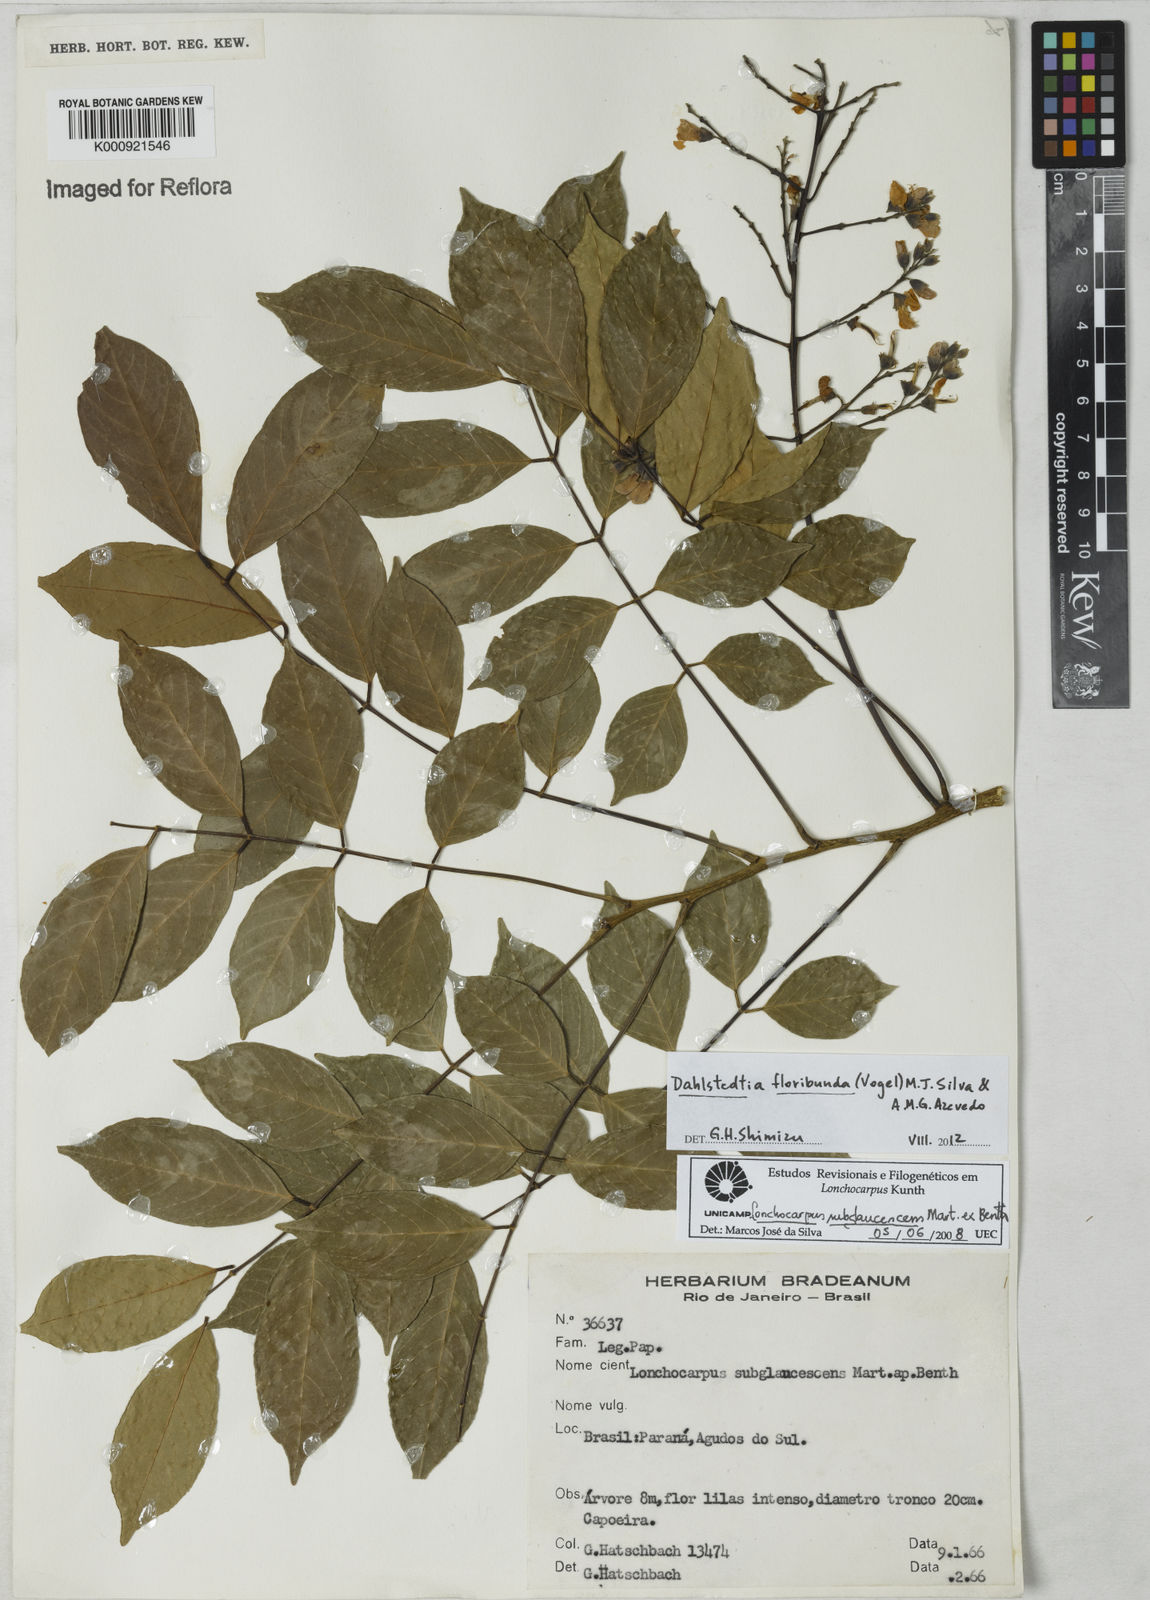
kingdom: Plantae
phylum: Tracheophyta
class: Magnoliopsida
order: Fabales
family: Fabaceae
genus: Dahlstedtia
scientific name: Dahlstedtia floribunda
